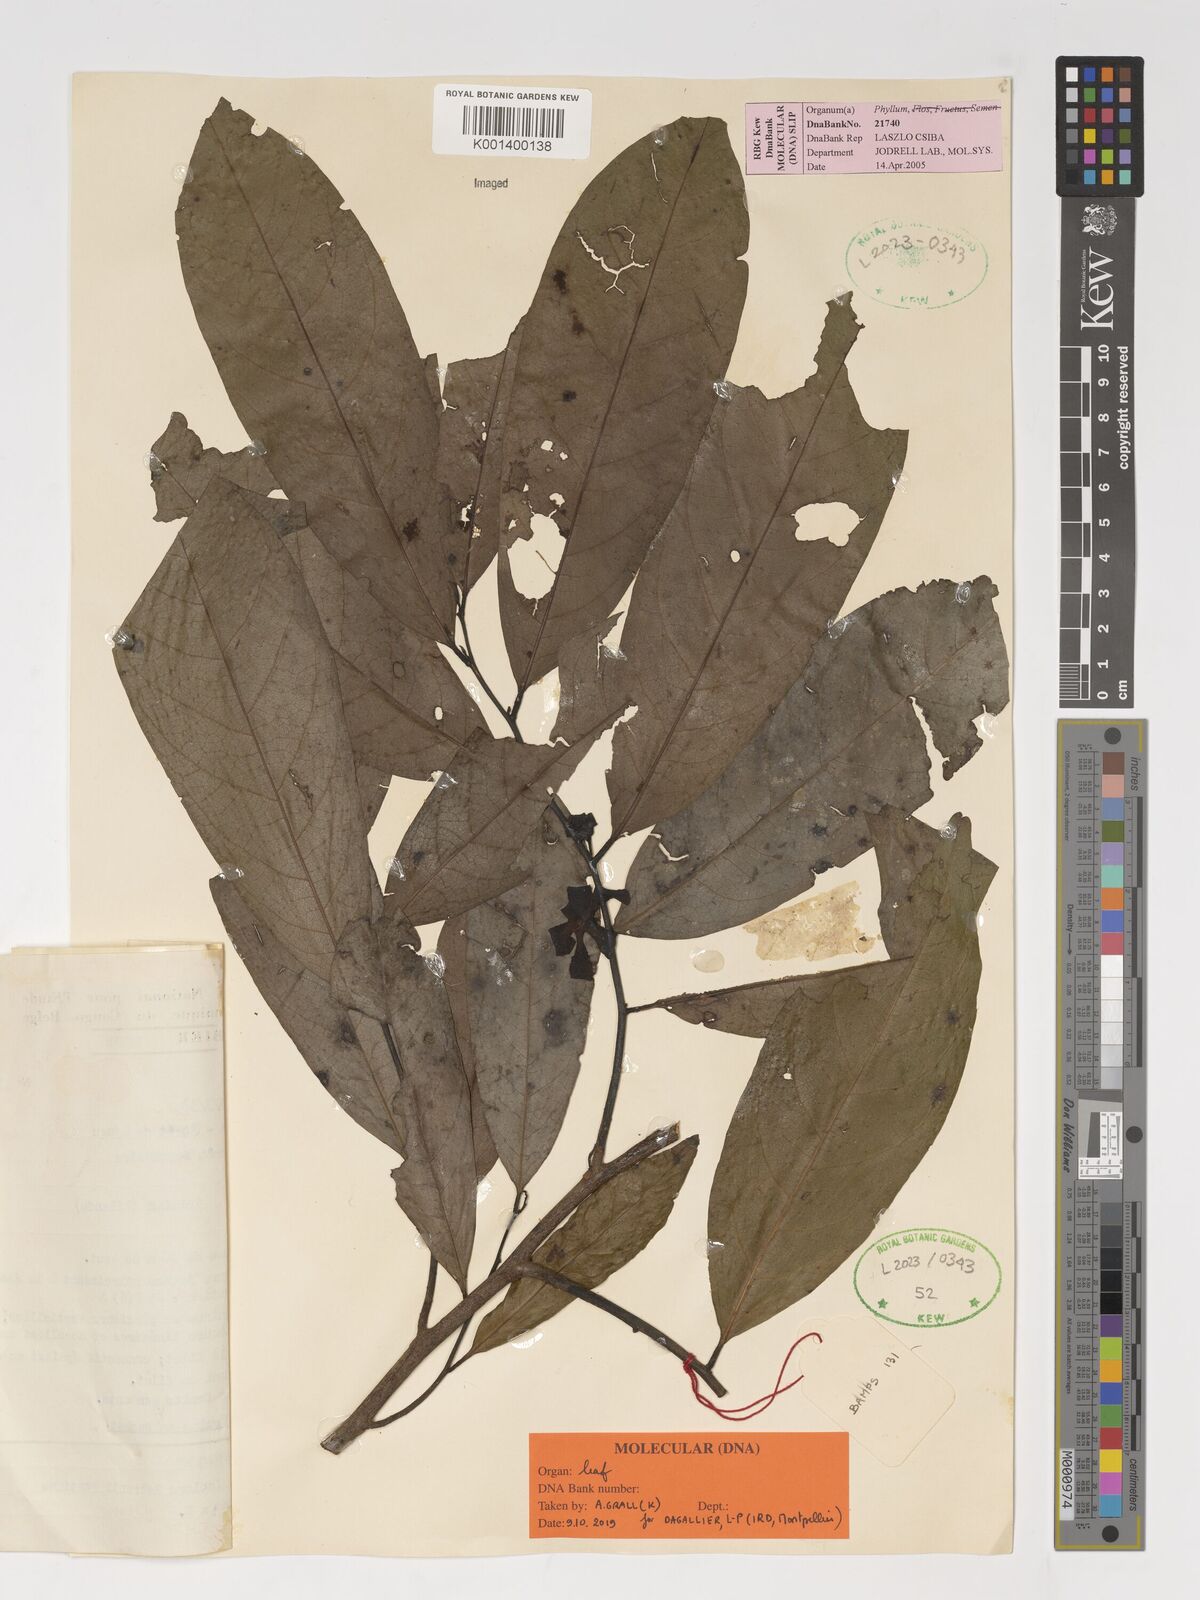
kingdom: Plantae
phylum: Tracheophyta
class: Magnoliopsida
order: Magnoliales
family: Annonaceae
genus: Isolona
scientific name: Isolona lebrunii
